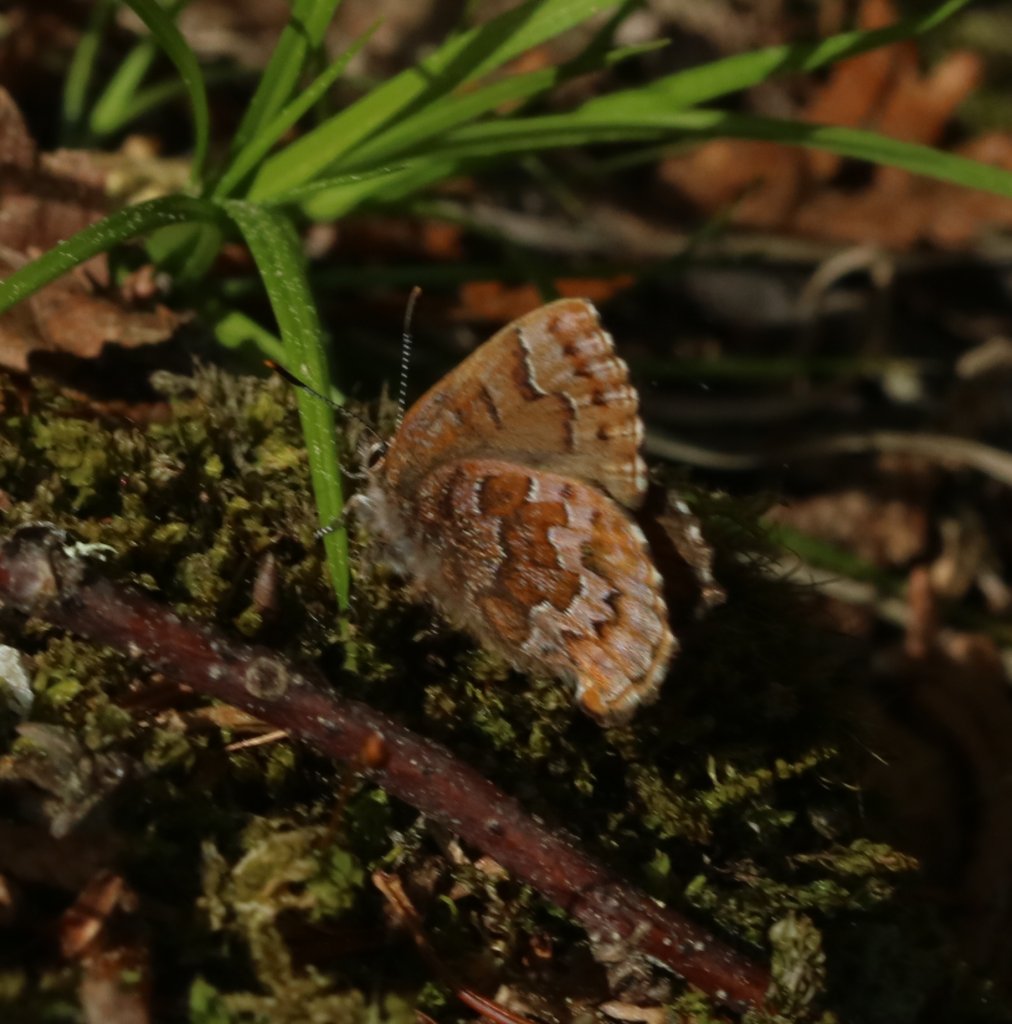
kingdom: Animalia
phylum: Arthropoda
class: Insecta
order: Lepidoptera
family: Lycaenidae
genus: Incisalia
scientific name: Incisalia niphon
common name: Eastern Pine Elfin
